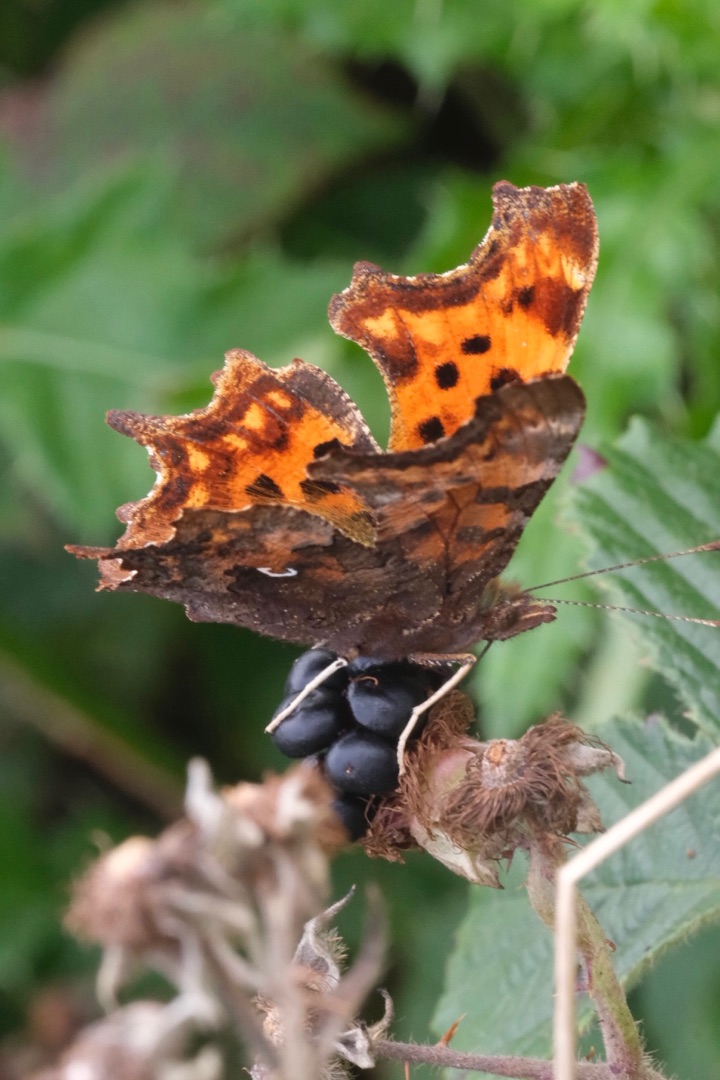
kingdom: Animalia
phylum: Arthropoda
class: Insecta
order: Lepidoptera
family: Nymphalidae
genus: Polygonia
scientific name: Polygonia c-album
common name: Det hvide C
